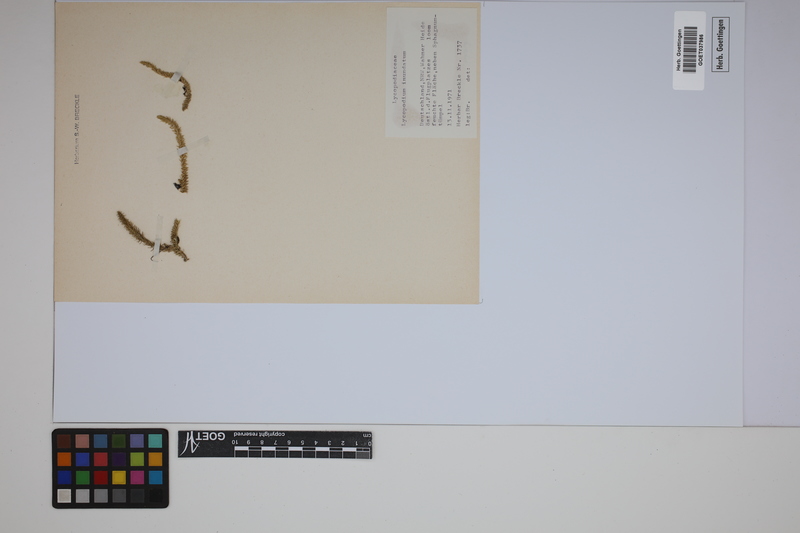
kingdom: Plantae
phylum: Tracheophyta
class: Lycopodiopsida
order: Lycopodiales
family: Lycopodiaceae
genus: Lycopodiella
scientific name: Lycopodiella inundata
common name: Marsh clubmoss
